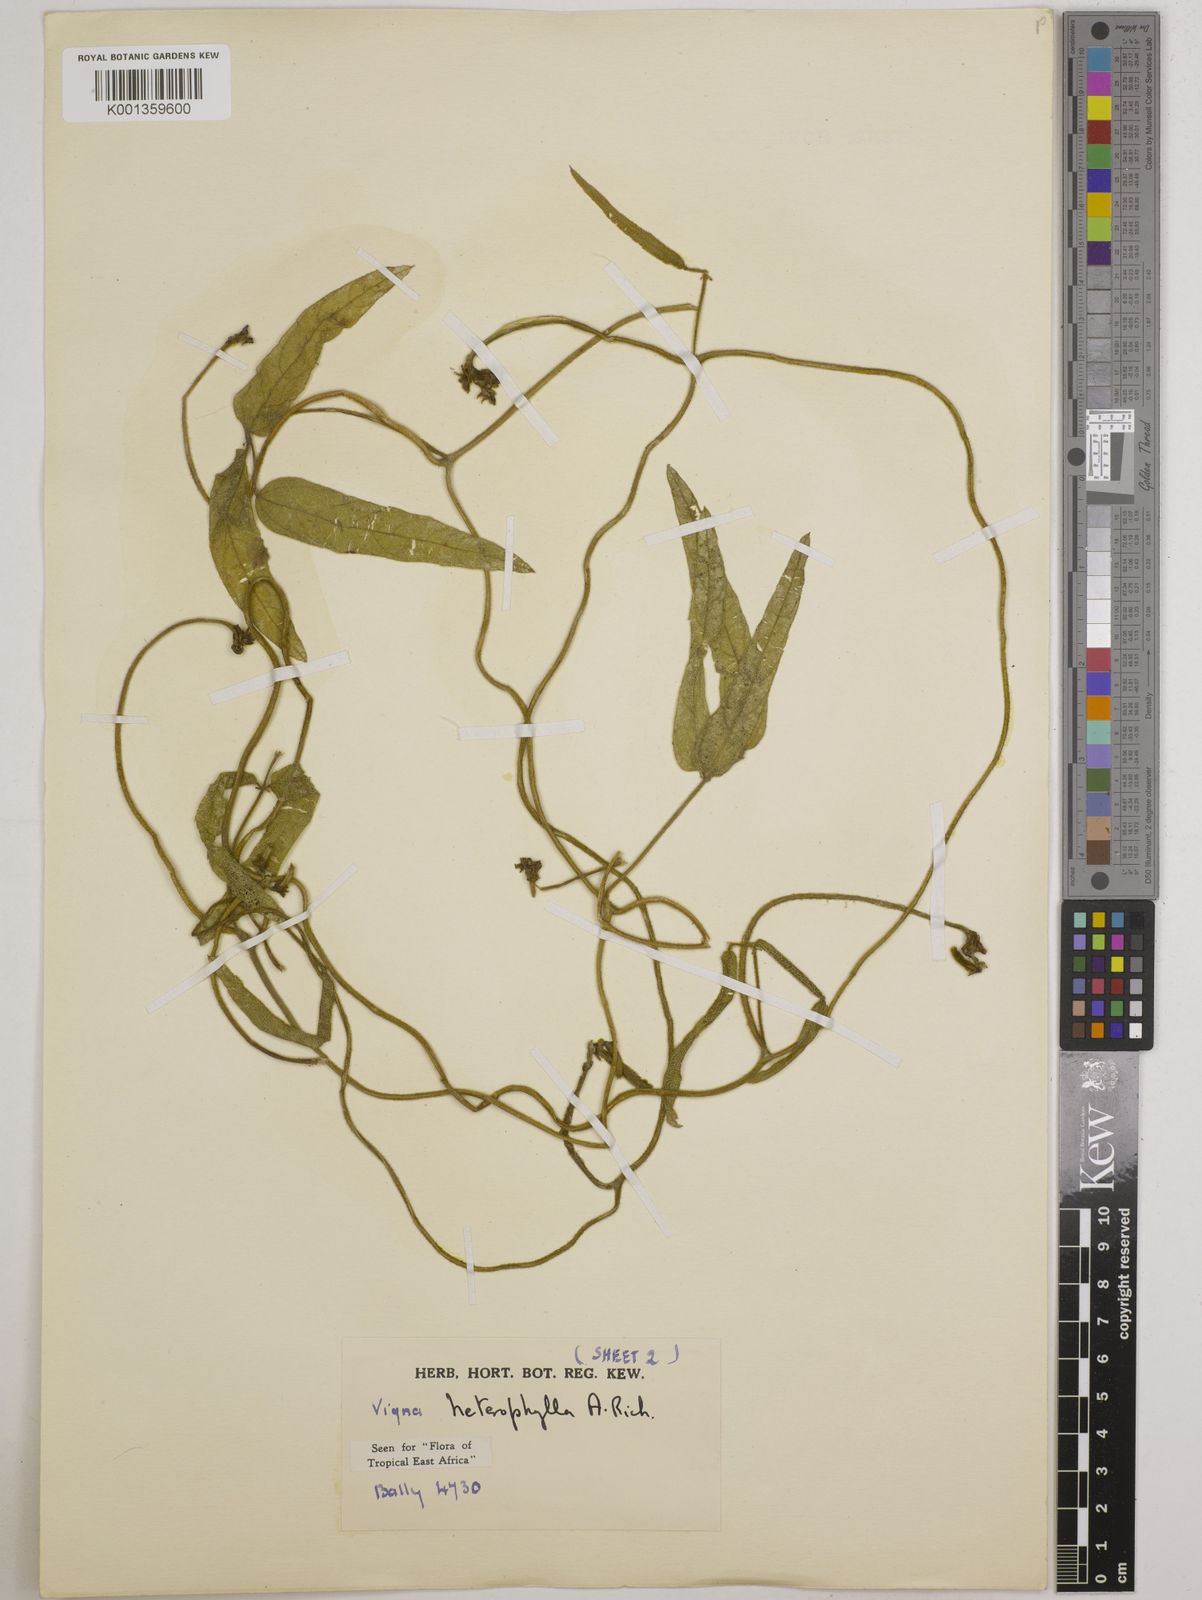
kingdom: Plantae
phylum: Tracheophyta
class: Magnoliopsida
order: Fabales
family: Fabaceae
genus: Vigna
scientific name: Vigna heterophylla
